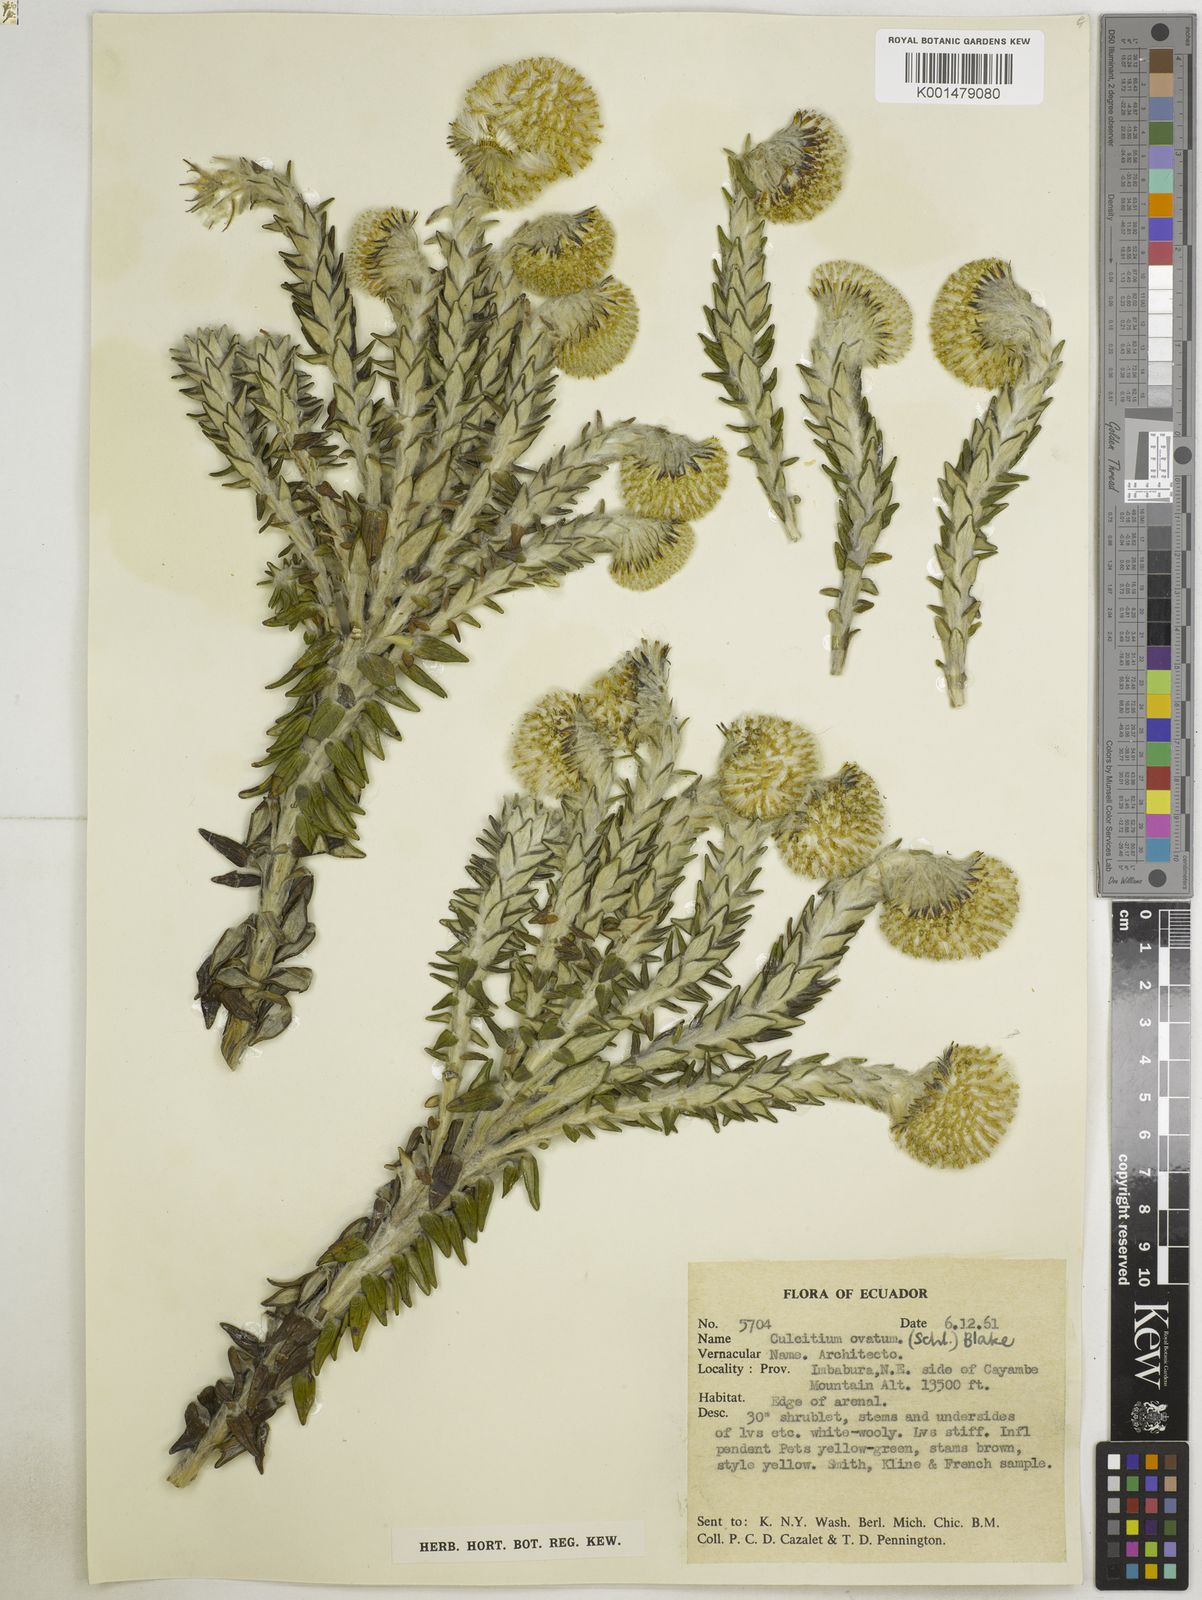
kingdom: Plantae
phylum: Tracheophyta
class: Magnoliopsida
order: Asterales
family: Asteraceae
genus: Lasiocephalus
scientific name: Lasiocephalus ovatus
